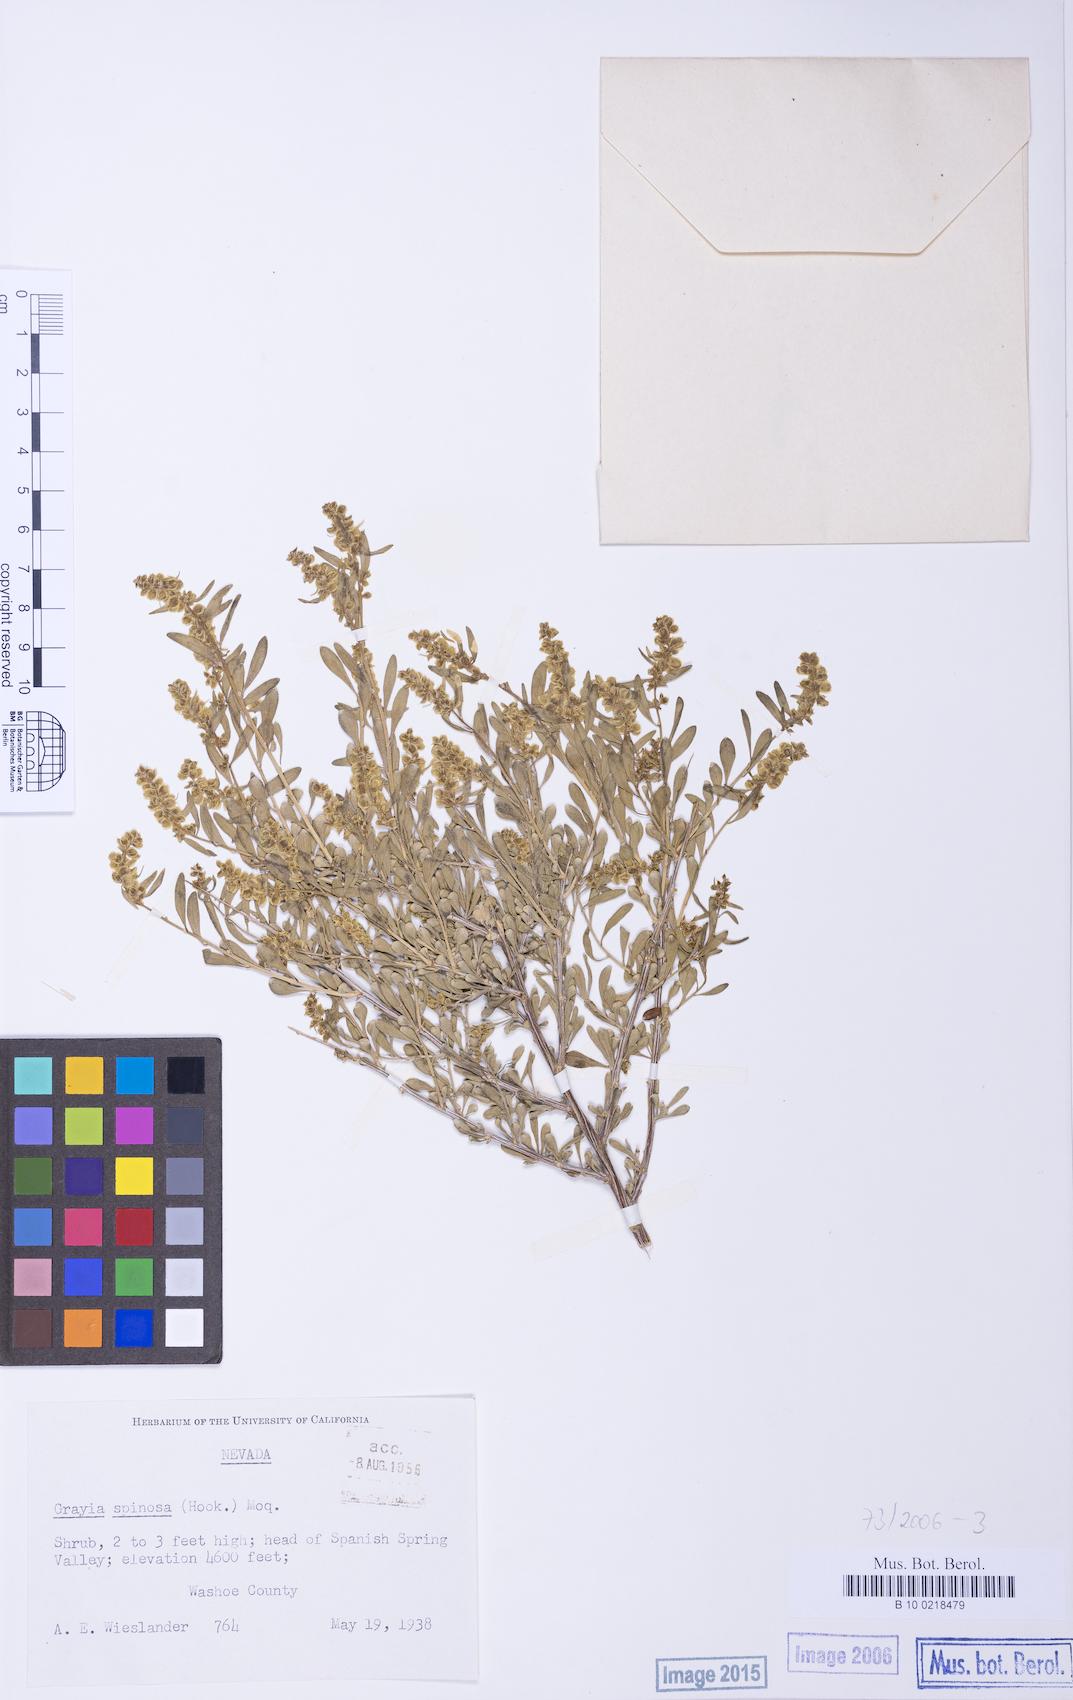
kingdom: Plantae
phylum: Tracheophyta
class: Magnoliopsida
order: Caryophyllales
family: Amaranthaceae
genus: Grayia
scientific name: Grayia spinosa
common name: Spiny hopsage
